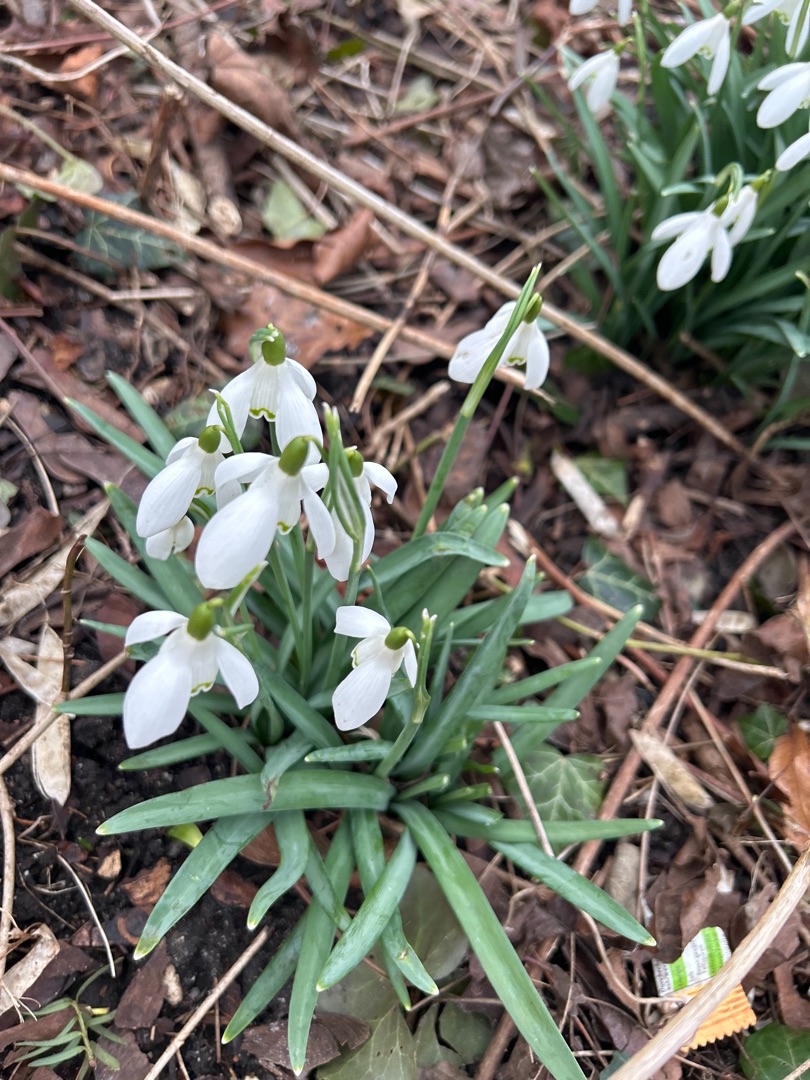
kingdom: Plantae
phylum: Tracheophyta
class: Liliopsida
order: Asparagales
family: Amaryllidaceae
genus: Galanthus
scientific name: Galanthus nivalis
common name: Vintergæk
